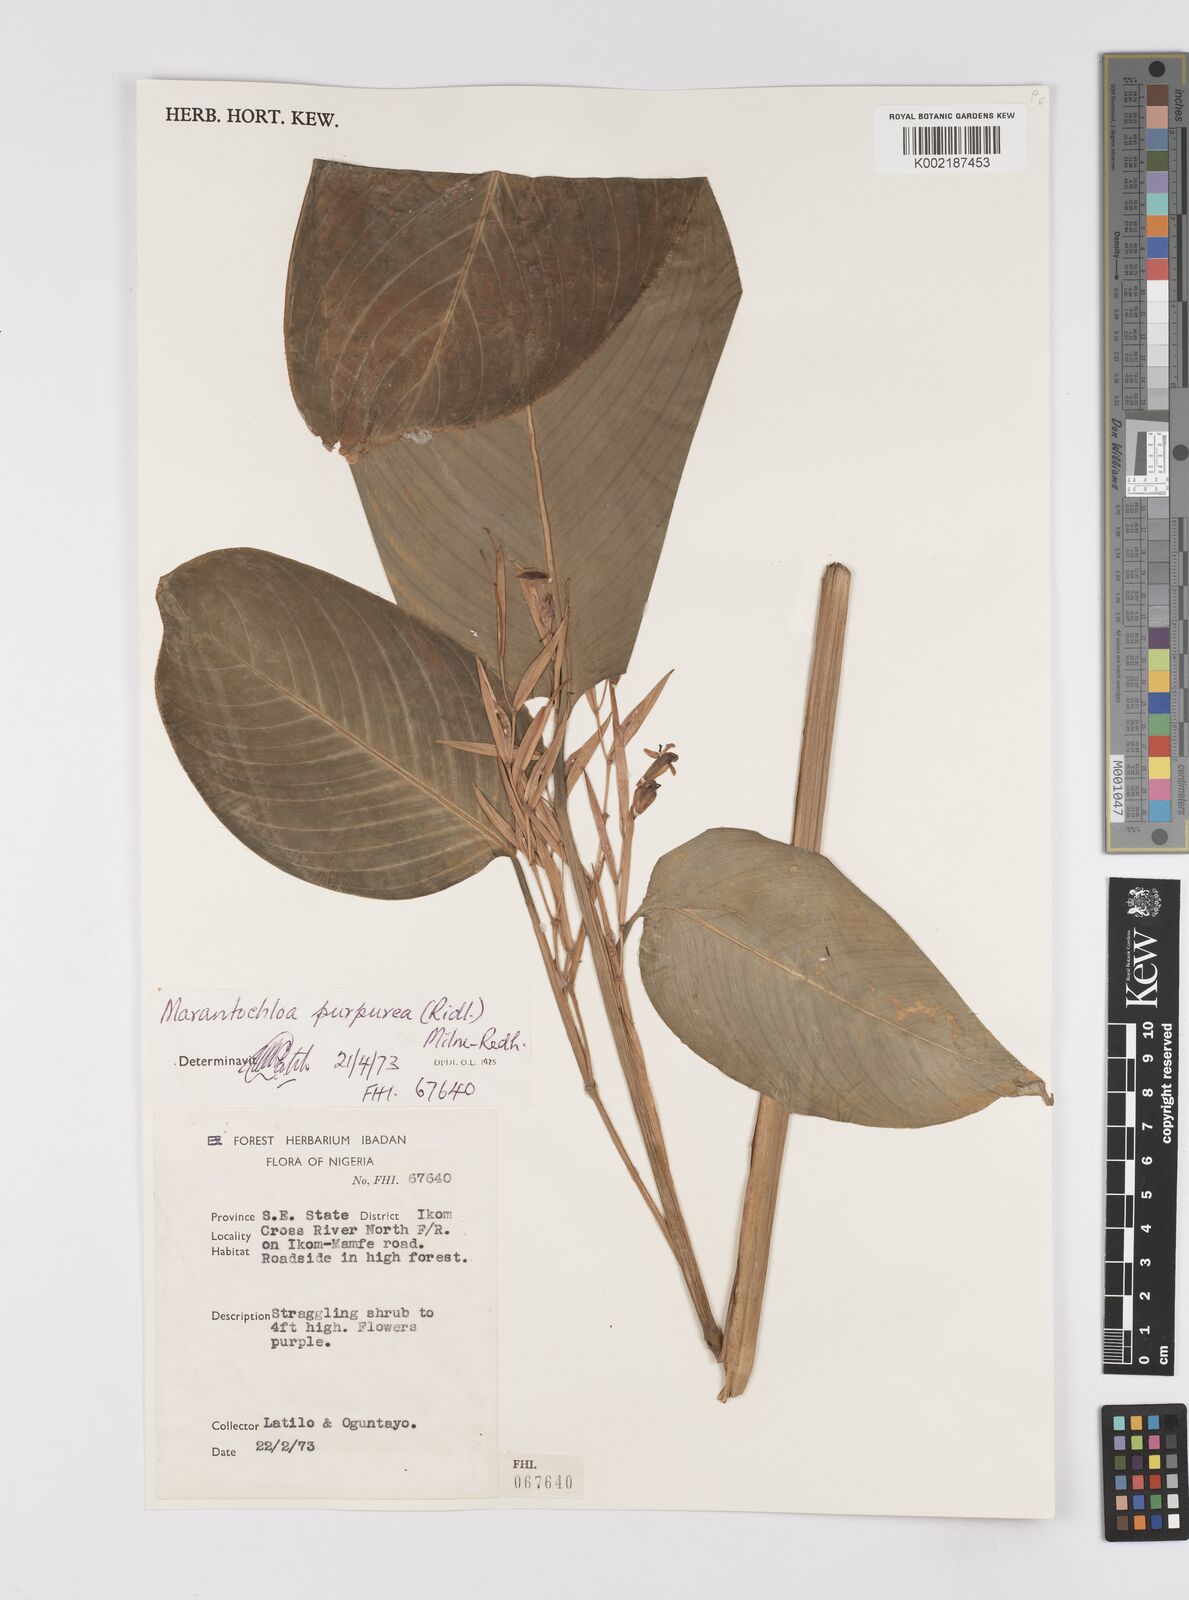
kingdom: Plantae
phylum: Tracheophyta
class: Liliopsida
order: Zingiberales
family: Marantaceae
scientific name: Marantaceae
